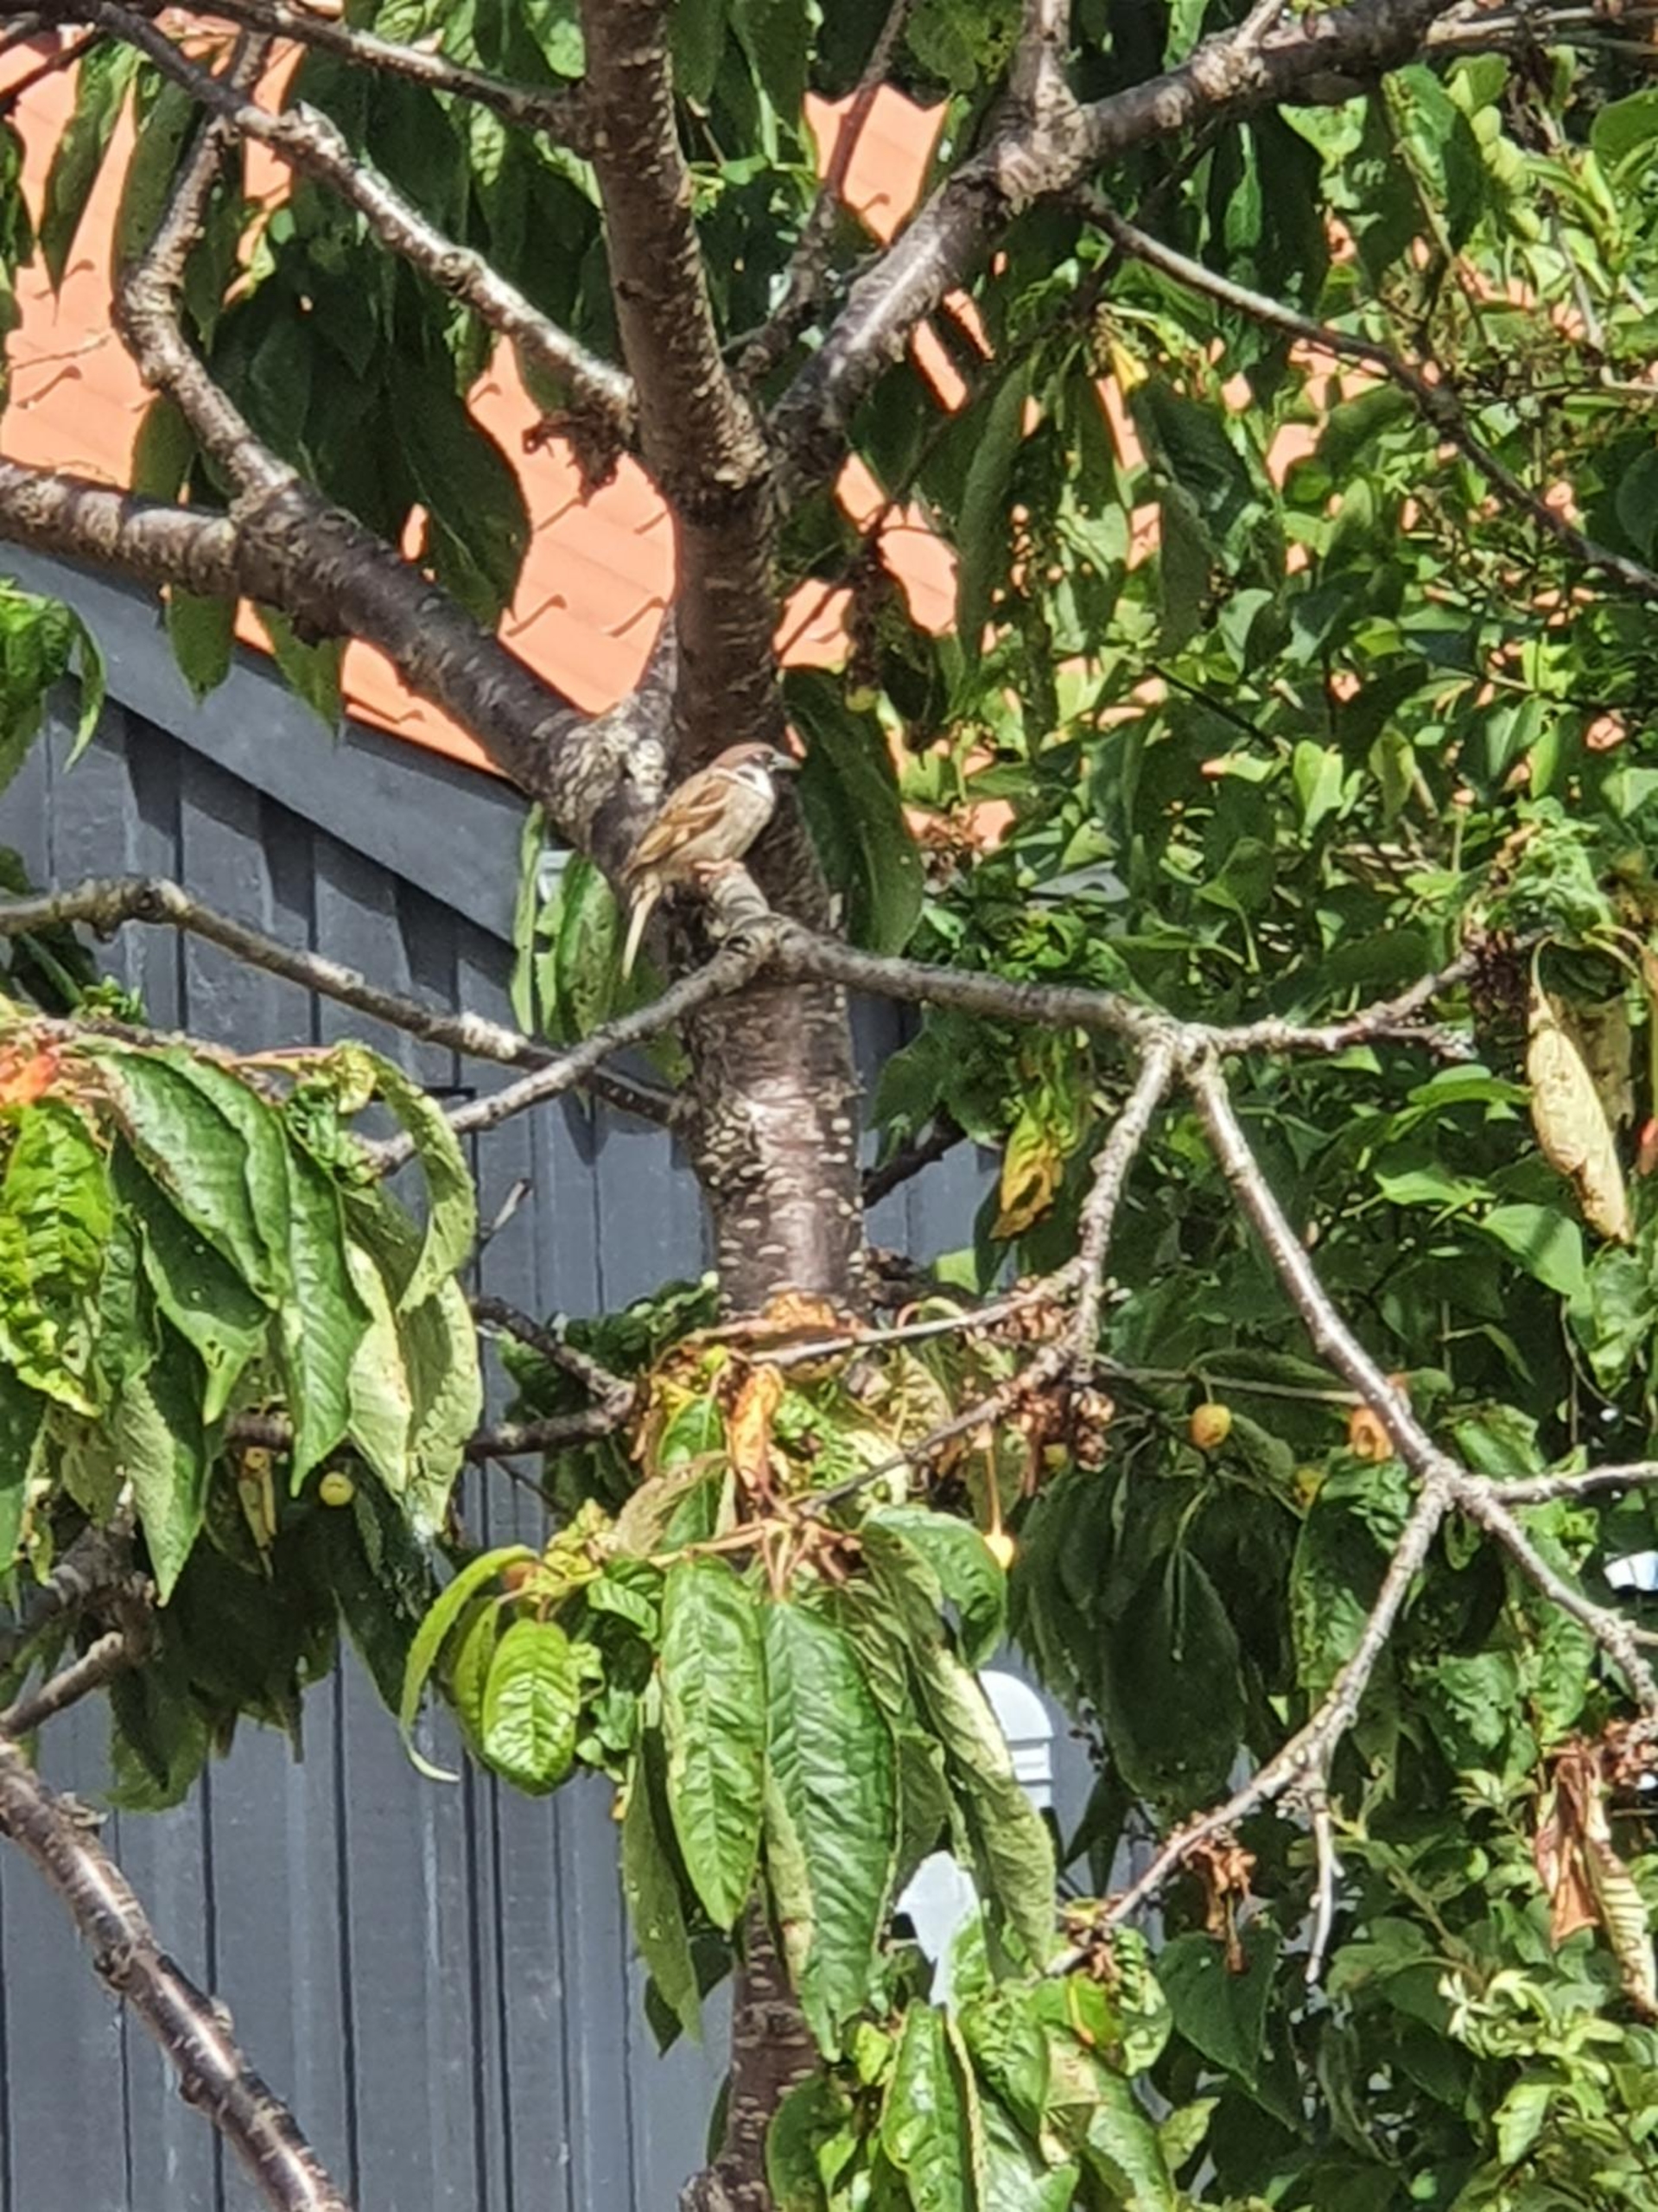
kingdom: Animalia
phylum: Chordata
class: Aves
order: Passeriformes
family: Passeridae
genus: Passer
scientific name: Passer montanus
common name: Skovspurv
